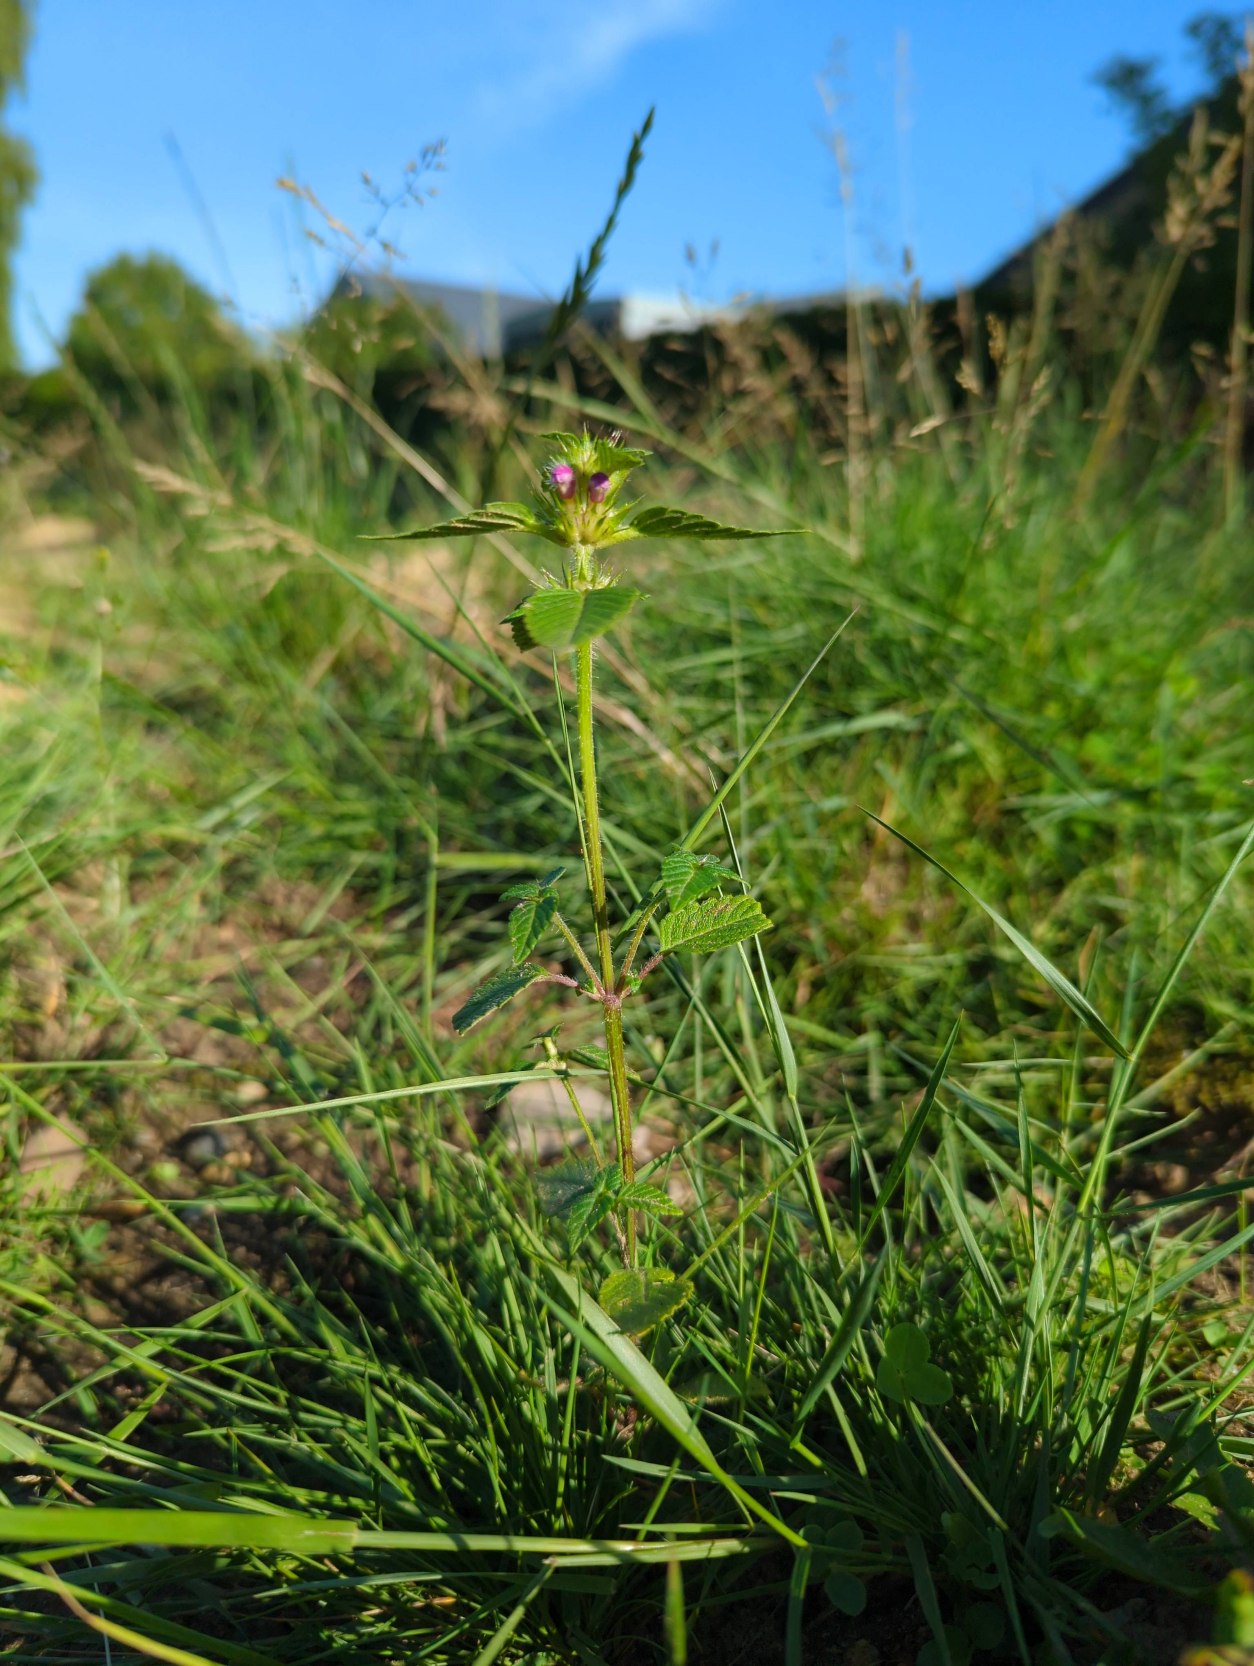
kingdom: Plantae
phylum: Tracheophyta
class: Magnoliopsida
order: Lamiales
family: Lamiaceae
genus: Galeopsis
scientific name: Galeopsis
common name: Hanekroslægten
